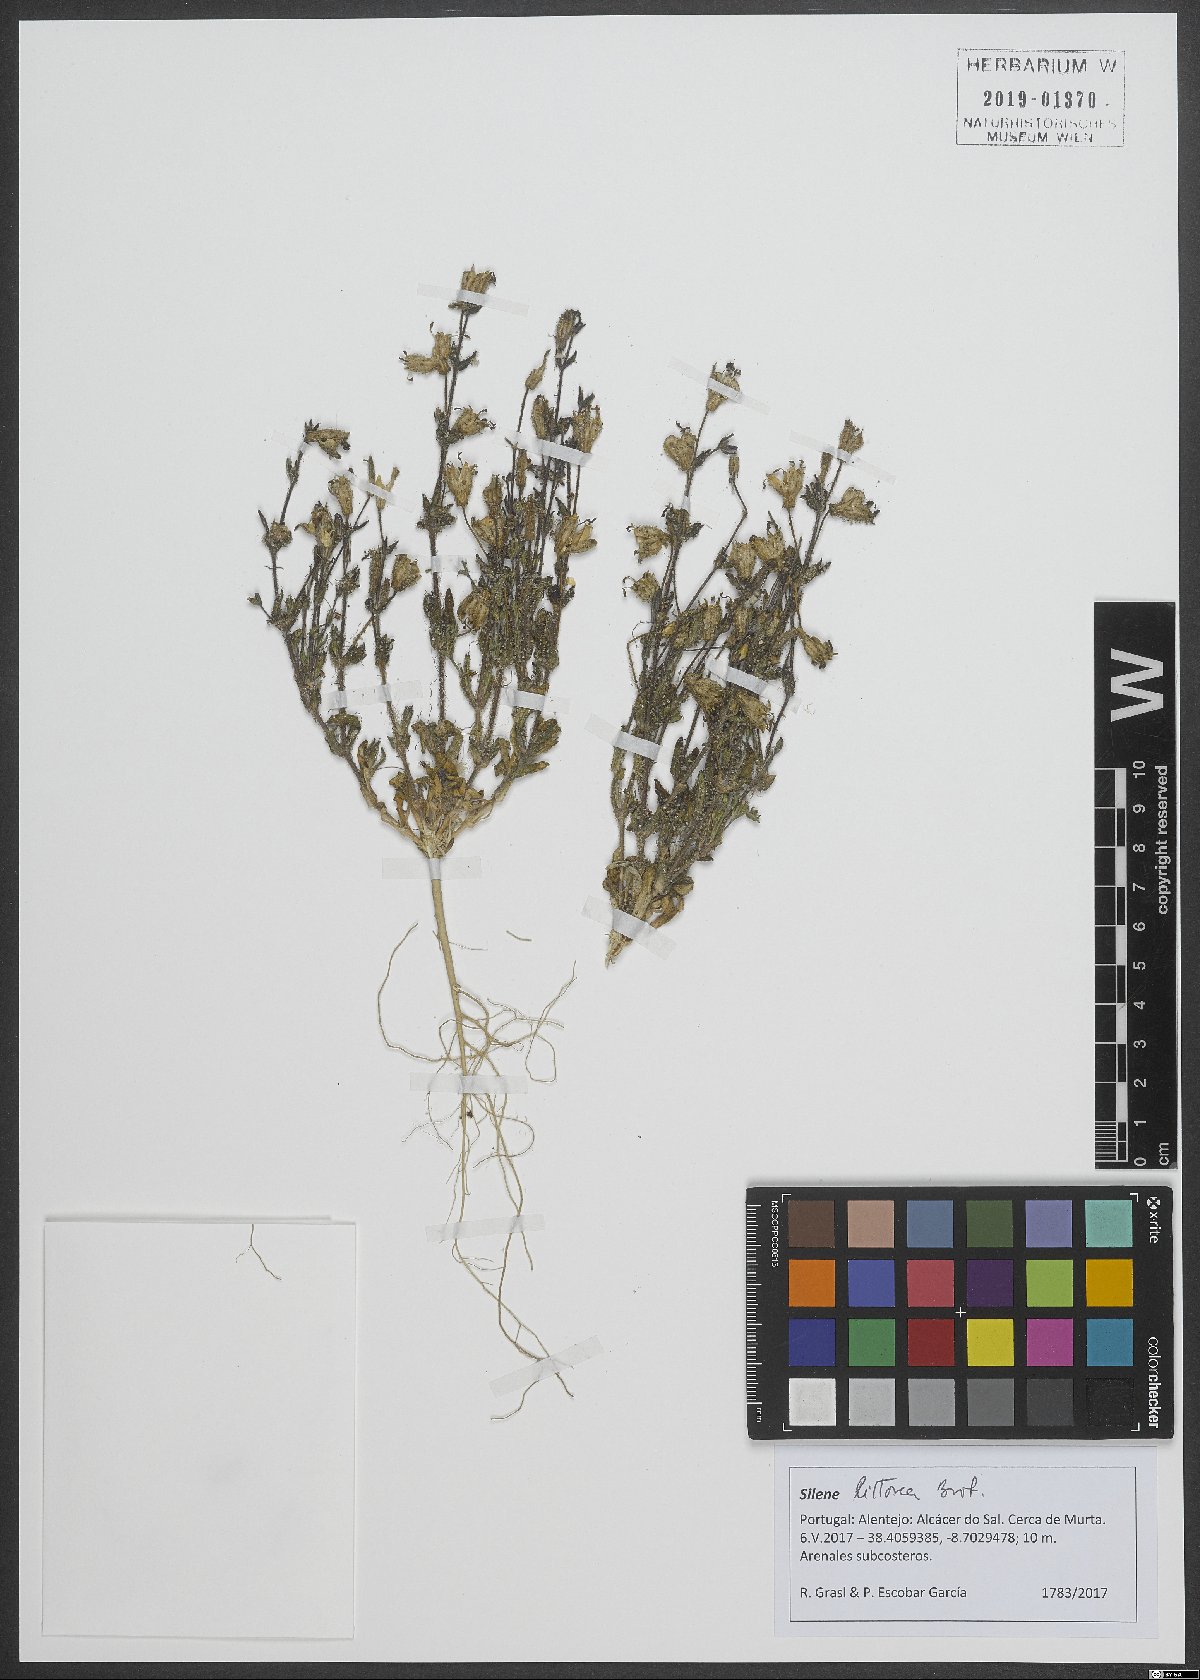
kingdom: Plantae
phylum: Tracheophyta
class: Magnoliopsida
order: Caryophyllales
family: Caryophyllaceae
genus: Silene
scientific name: Silene littorea
